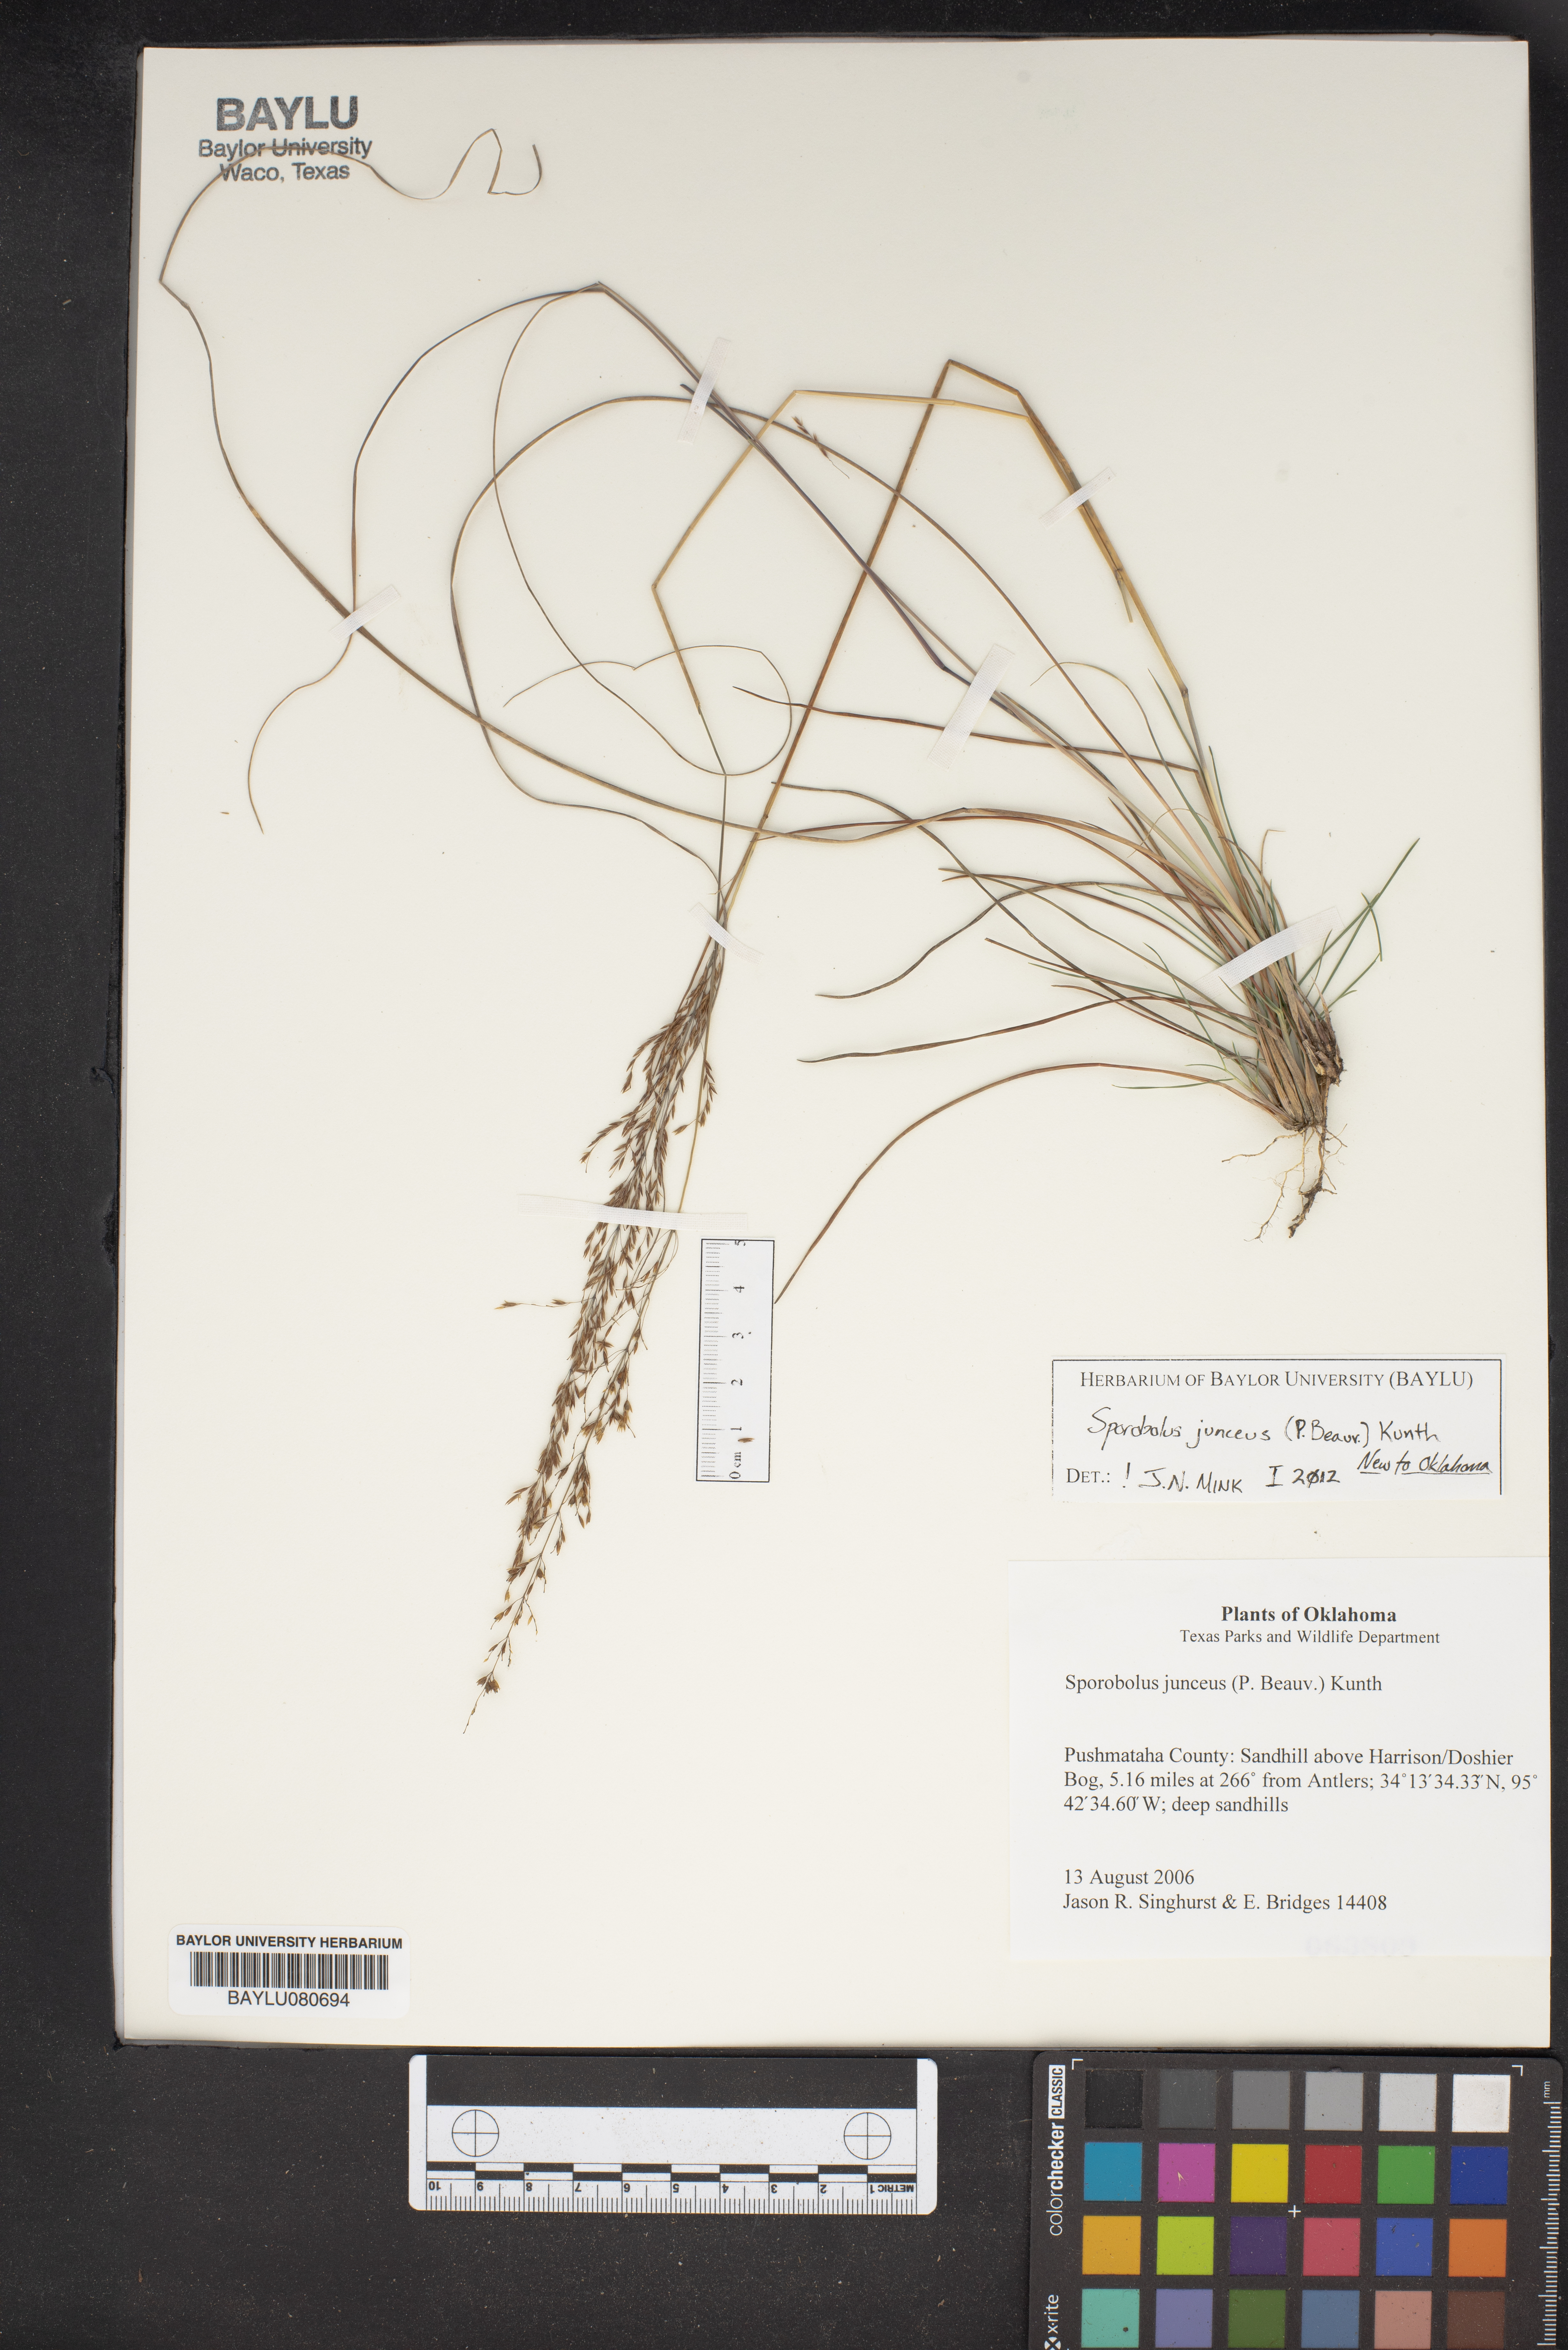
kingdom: Plantae
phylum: Tracheophyta
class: Liliopsida
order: Poales
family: Poaceae
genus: Sporobolus
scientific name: Sporobolus junceus
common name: Lizard grass
